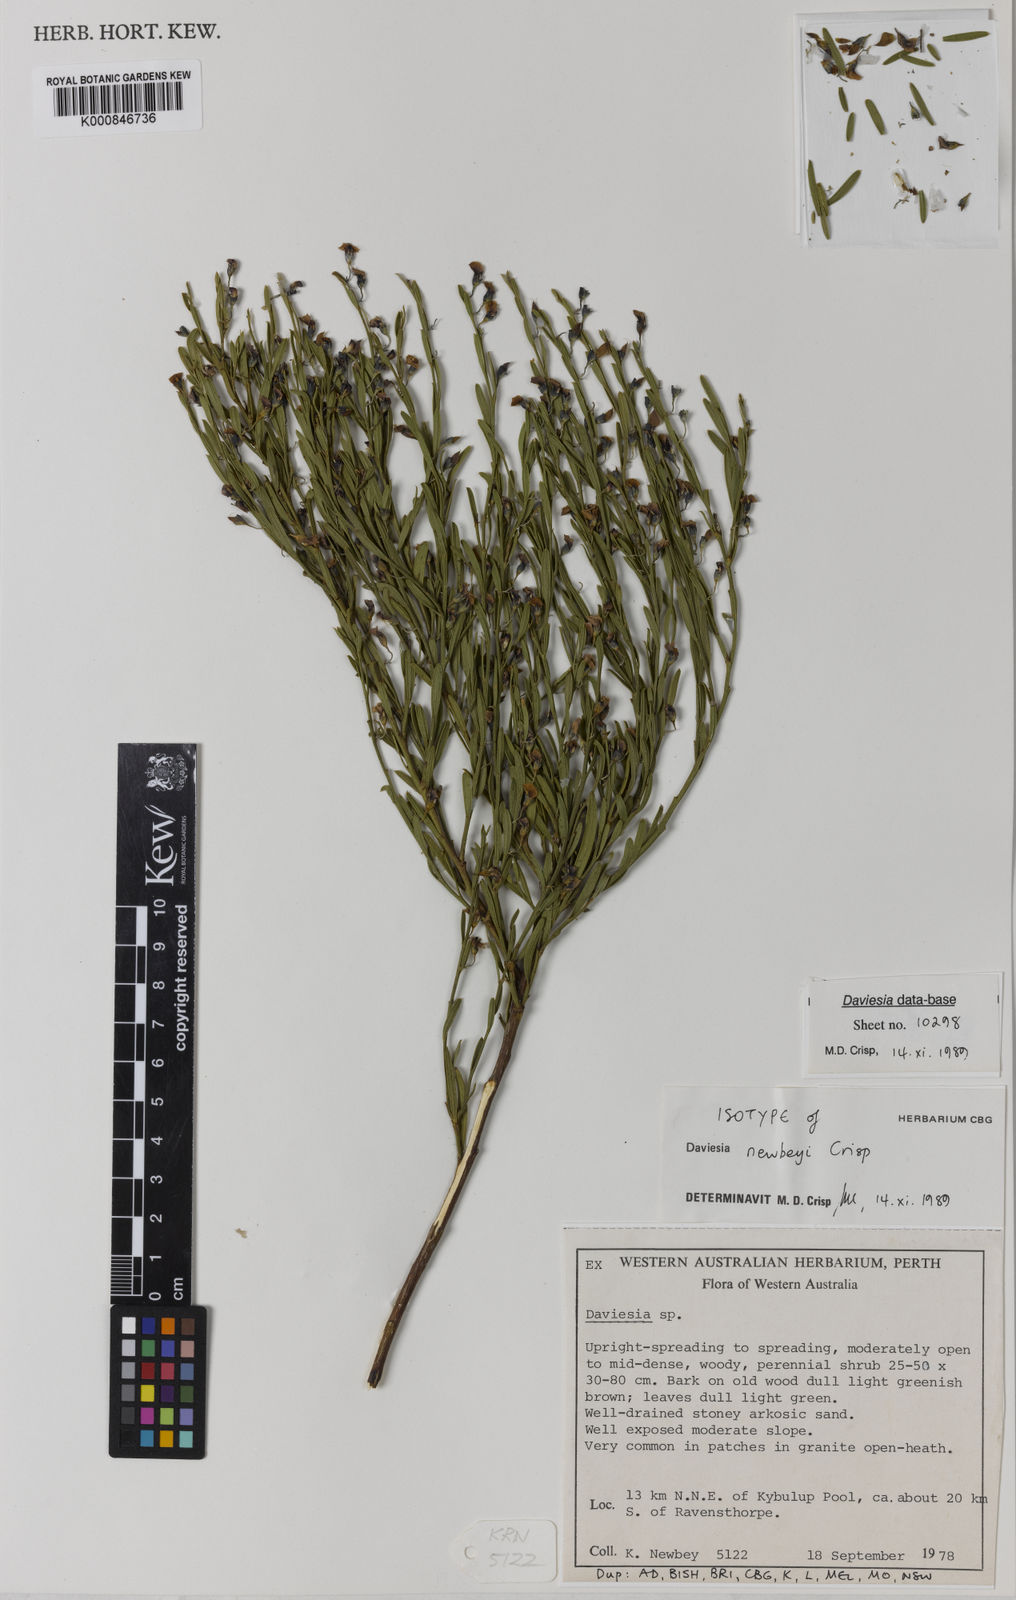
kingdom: Plantae
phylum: Tracheophyta
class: Magnoliopsida
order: Fabales
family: Fabaceae
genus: Daviesia
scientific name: Daviesia newbeyi
